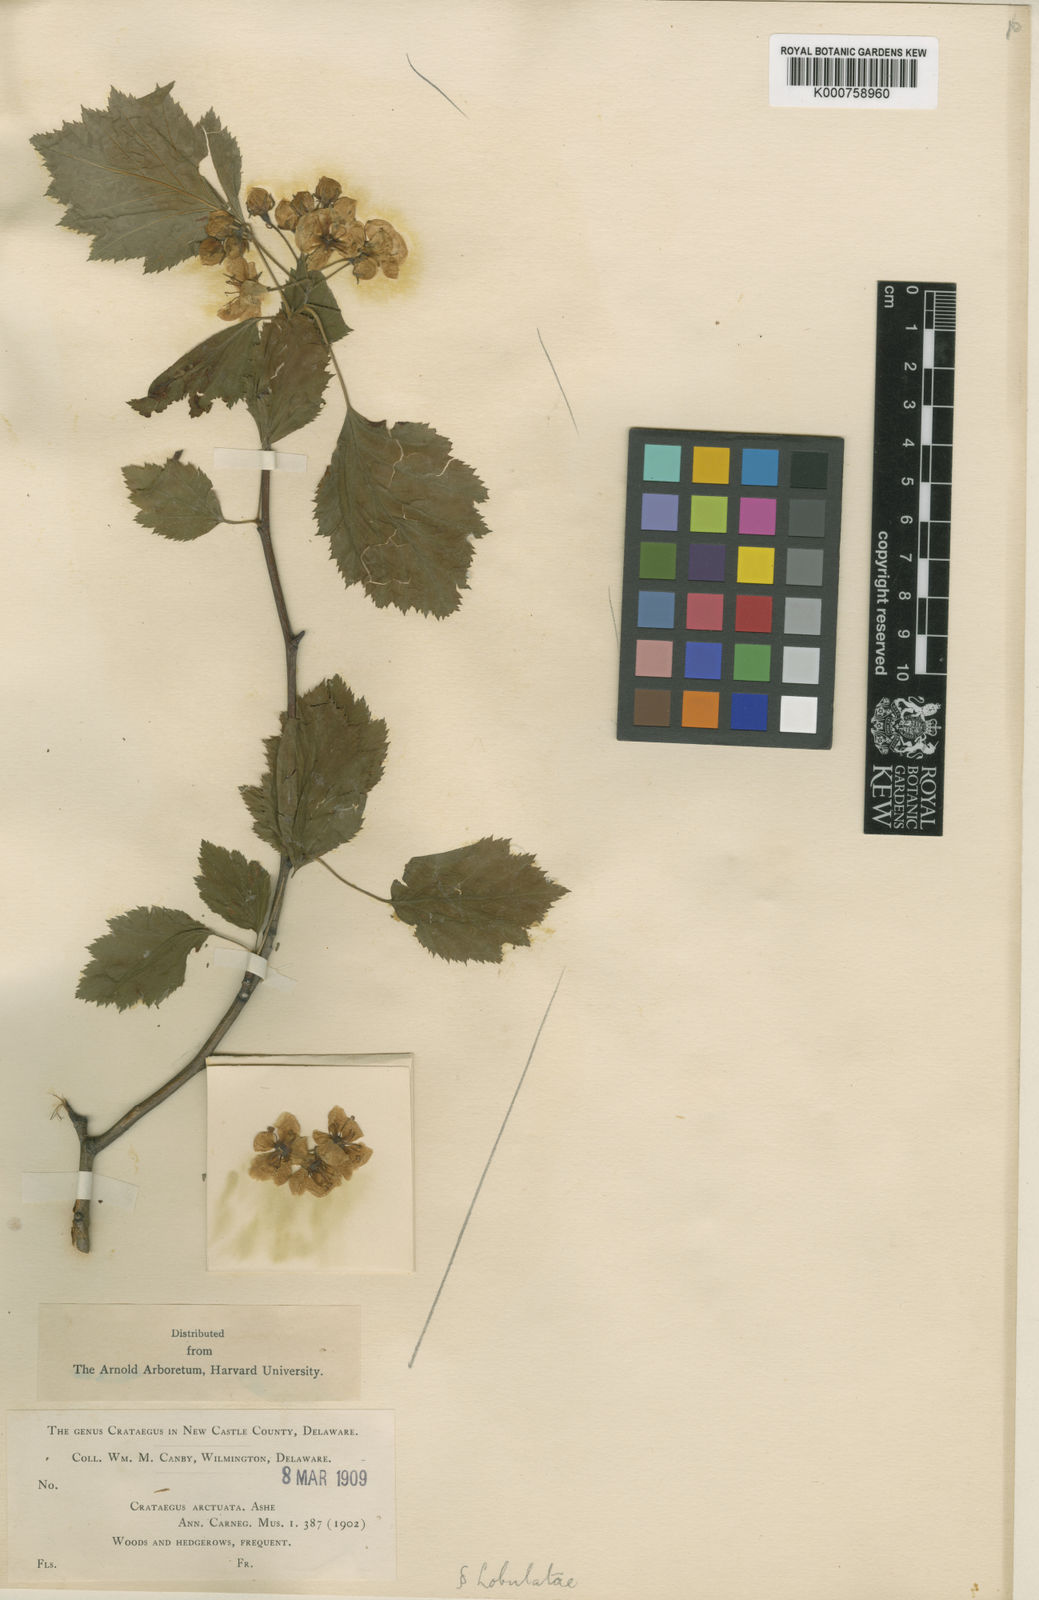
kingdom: Plantae
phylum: Tracheophyta
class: Magnoliopsida
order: Rosales
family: Rosaceae
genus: Crataegus
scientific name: Crataegus
